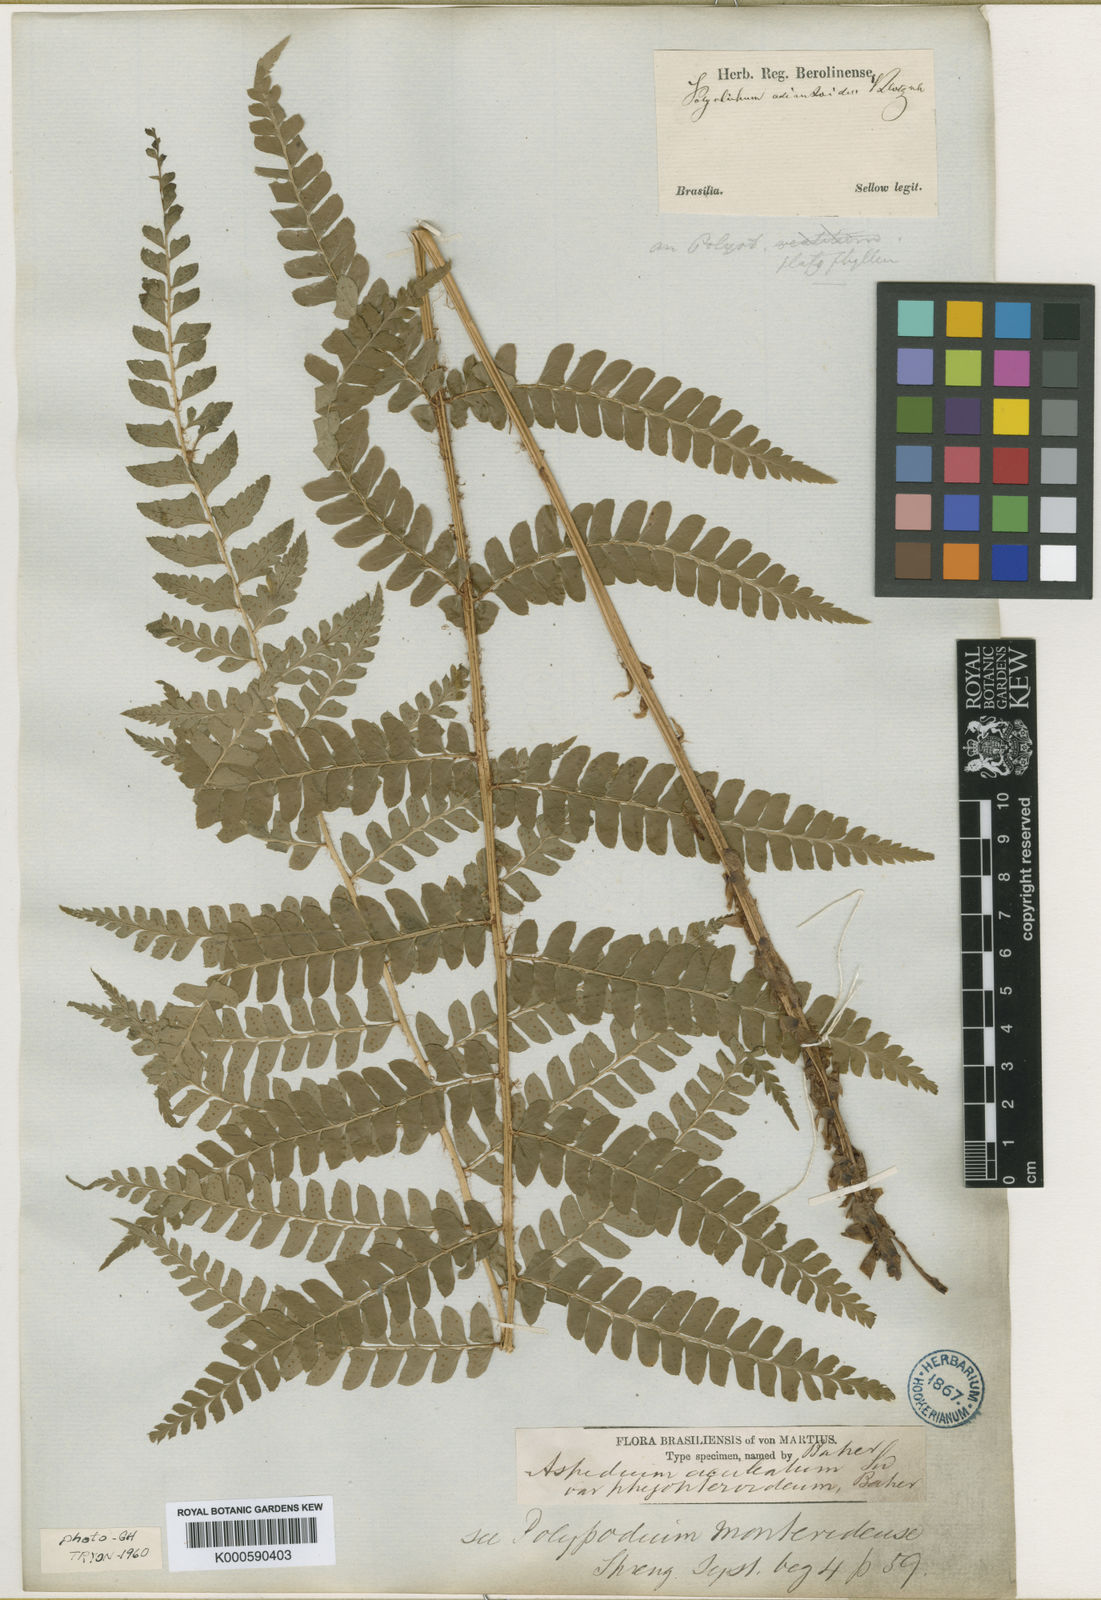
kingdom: Plantae
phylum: Tracheophyta
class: Polypodiopsida
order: Polypodiales
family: Dryopteridaceae
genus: Polystichum
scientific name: Polystichum
